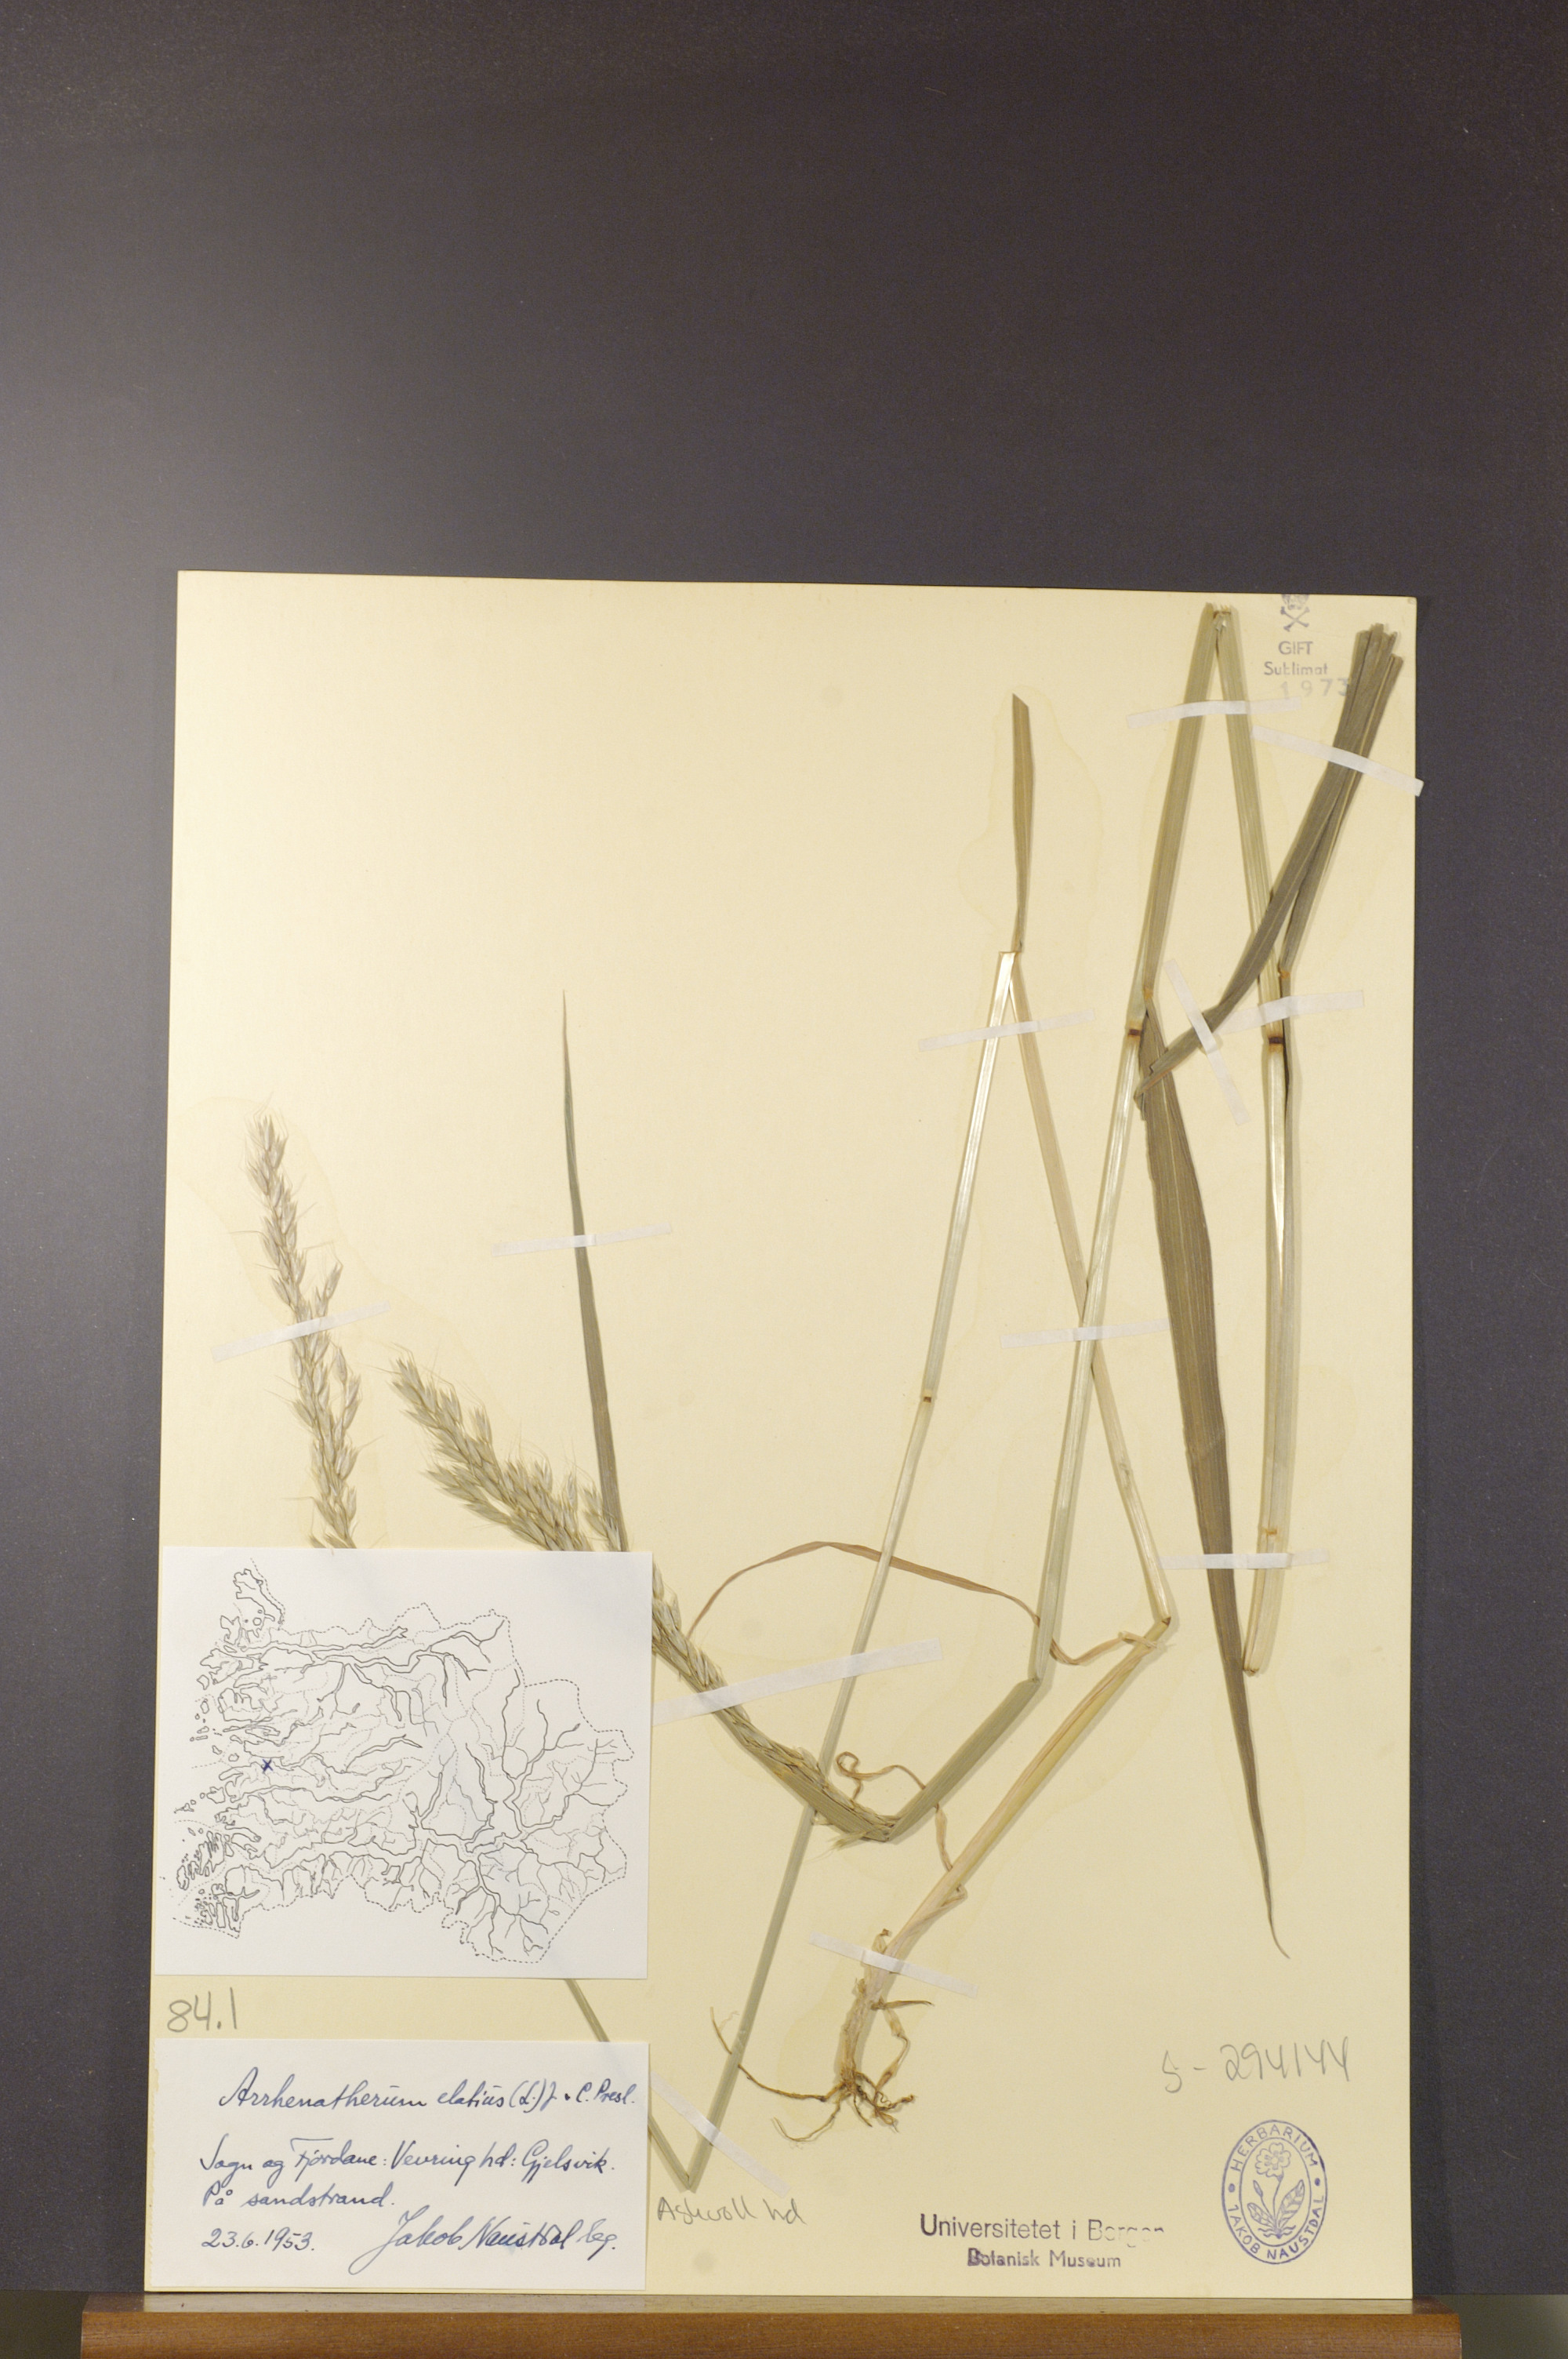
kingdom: Plantae
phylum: Tracheophyta
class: Liliopsida
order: Poales
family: Poaceae
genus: Arrhenatherum
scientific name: Arrhenatherum elatius
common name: Tall oatgrass
